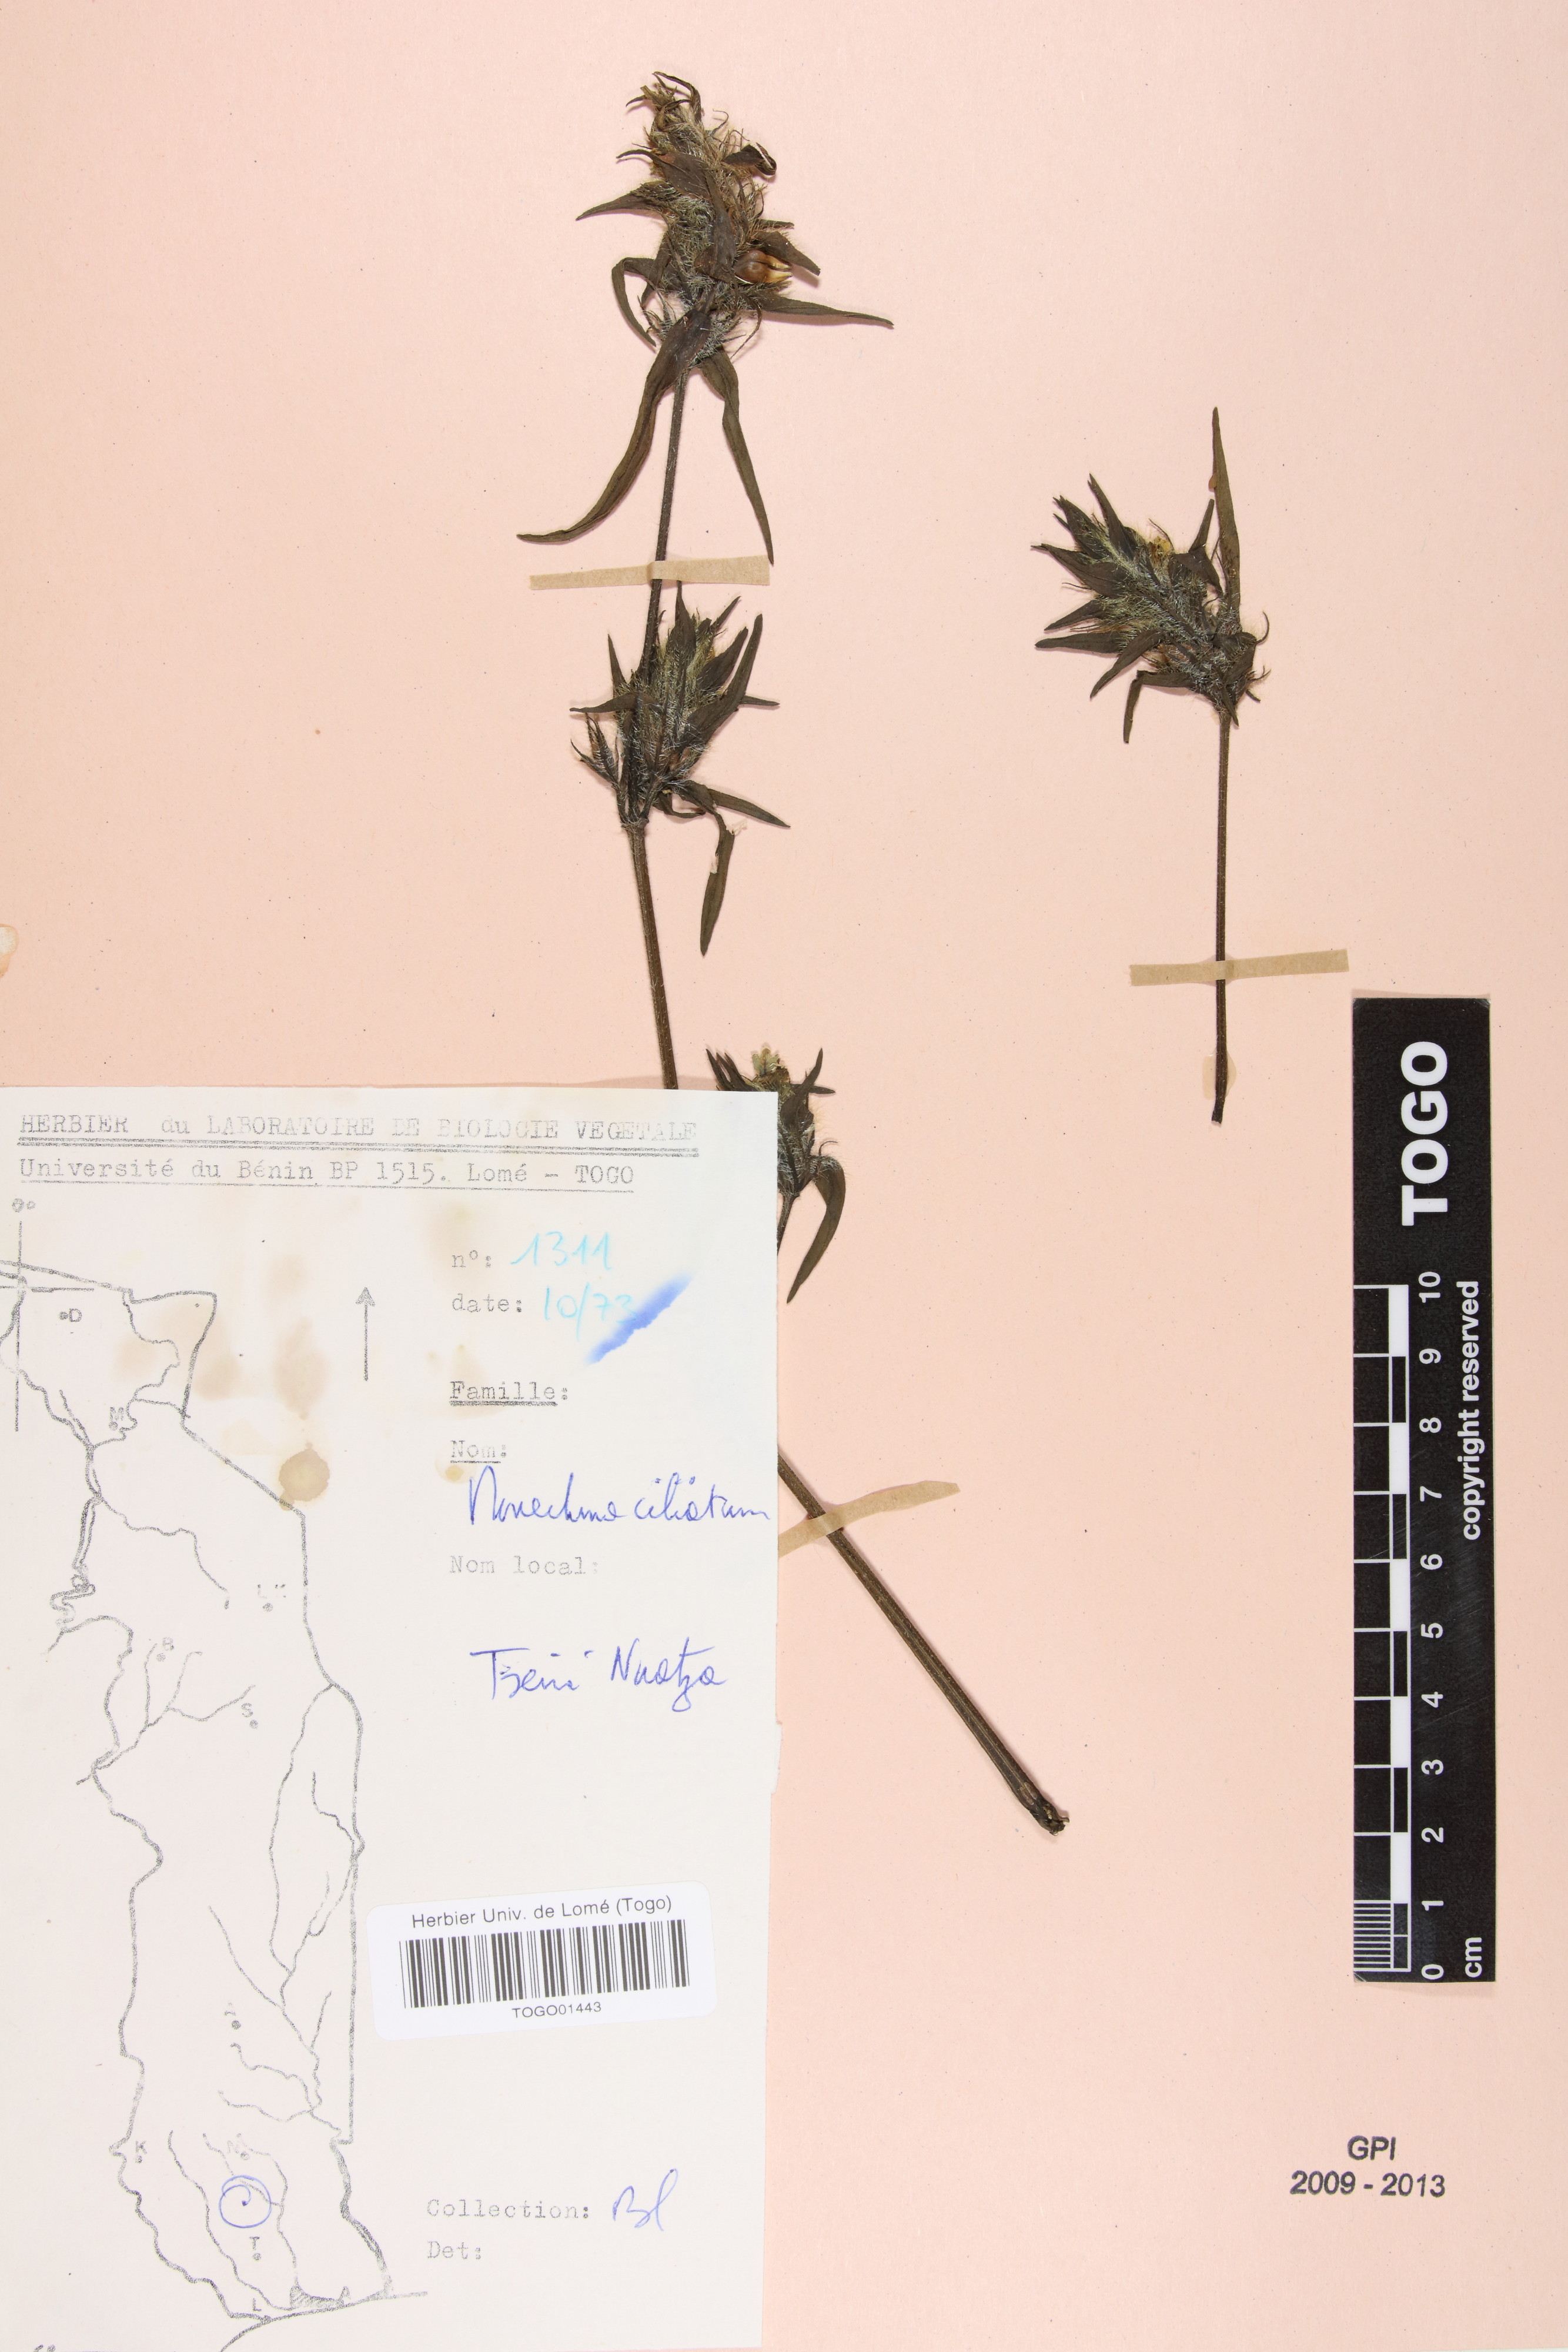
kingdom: Plantae
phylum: Tracheophyta
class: Magnoliopsida
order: Lamiales
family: Acanthaceae
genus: Pogonospermum
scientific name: Pogonospermum ciliare
